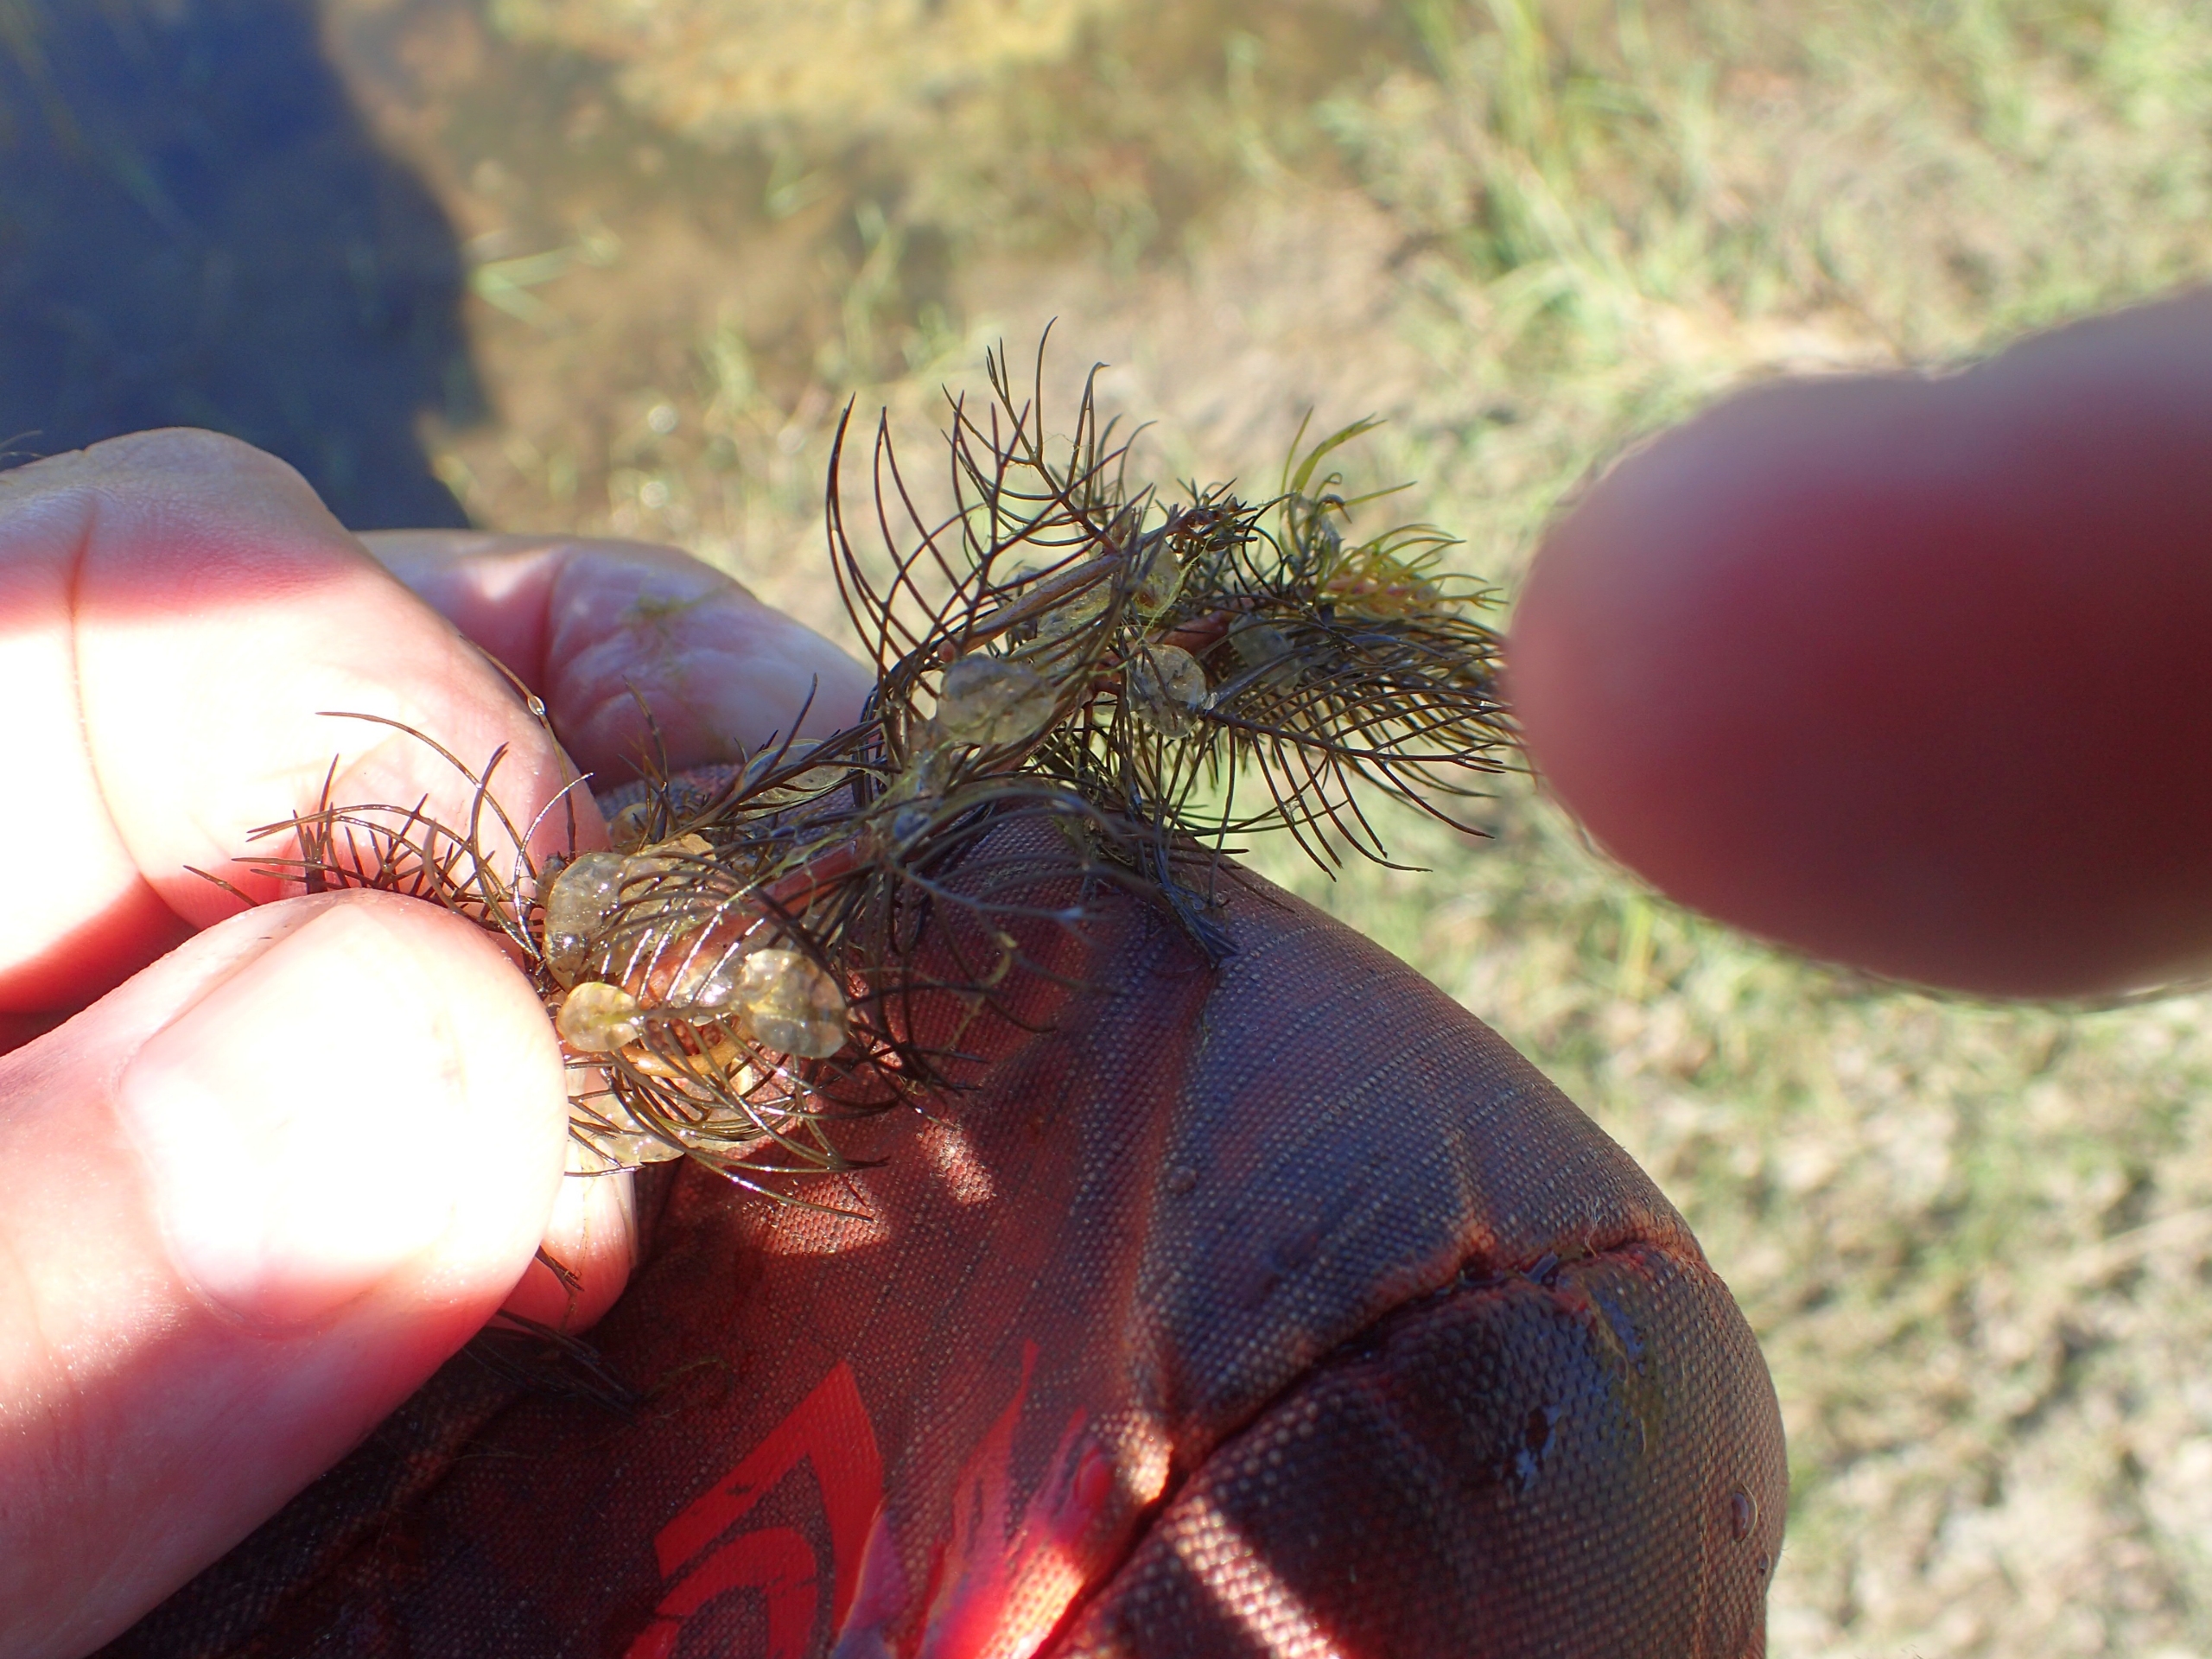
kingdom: Plantae
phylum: Tracheophyta
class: Magnoliopsida
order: Saxifragales
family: Haloragaceae
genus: Myriophyllum
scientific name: Myriophyllum spicatum
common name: Aks-tusindblad
